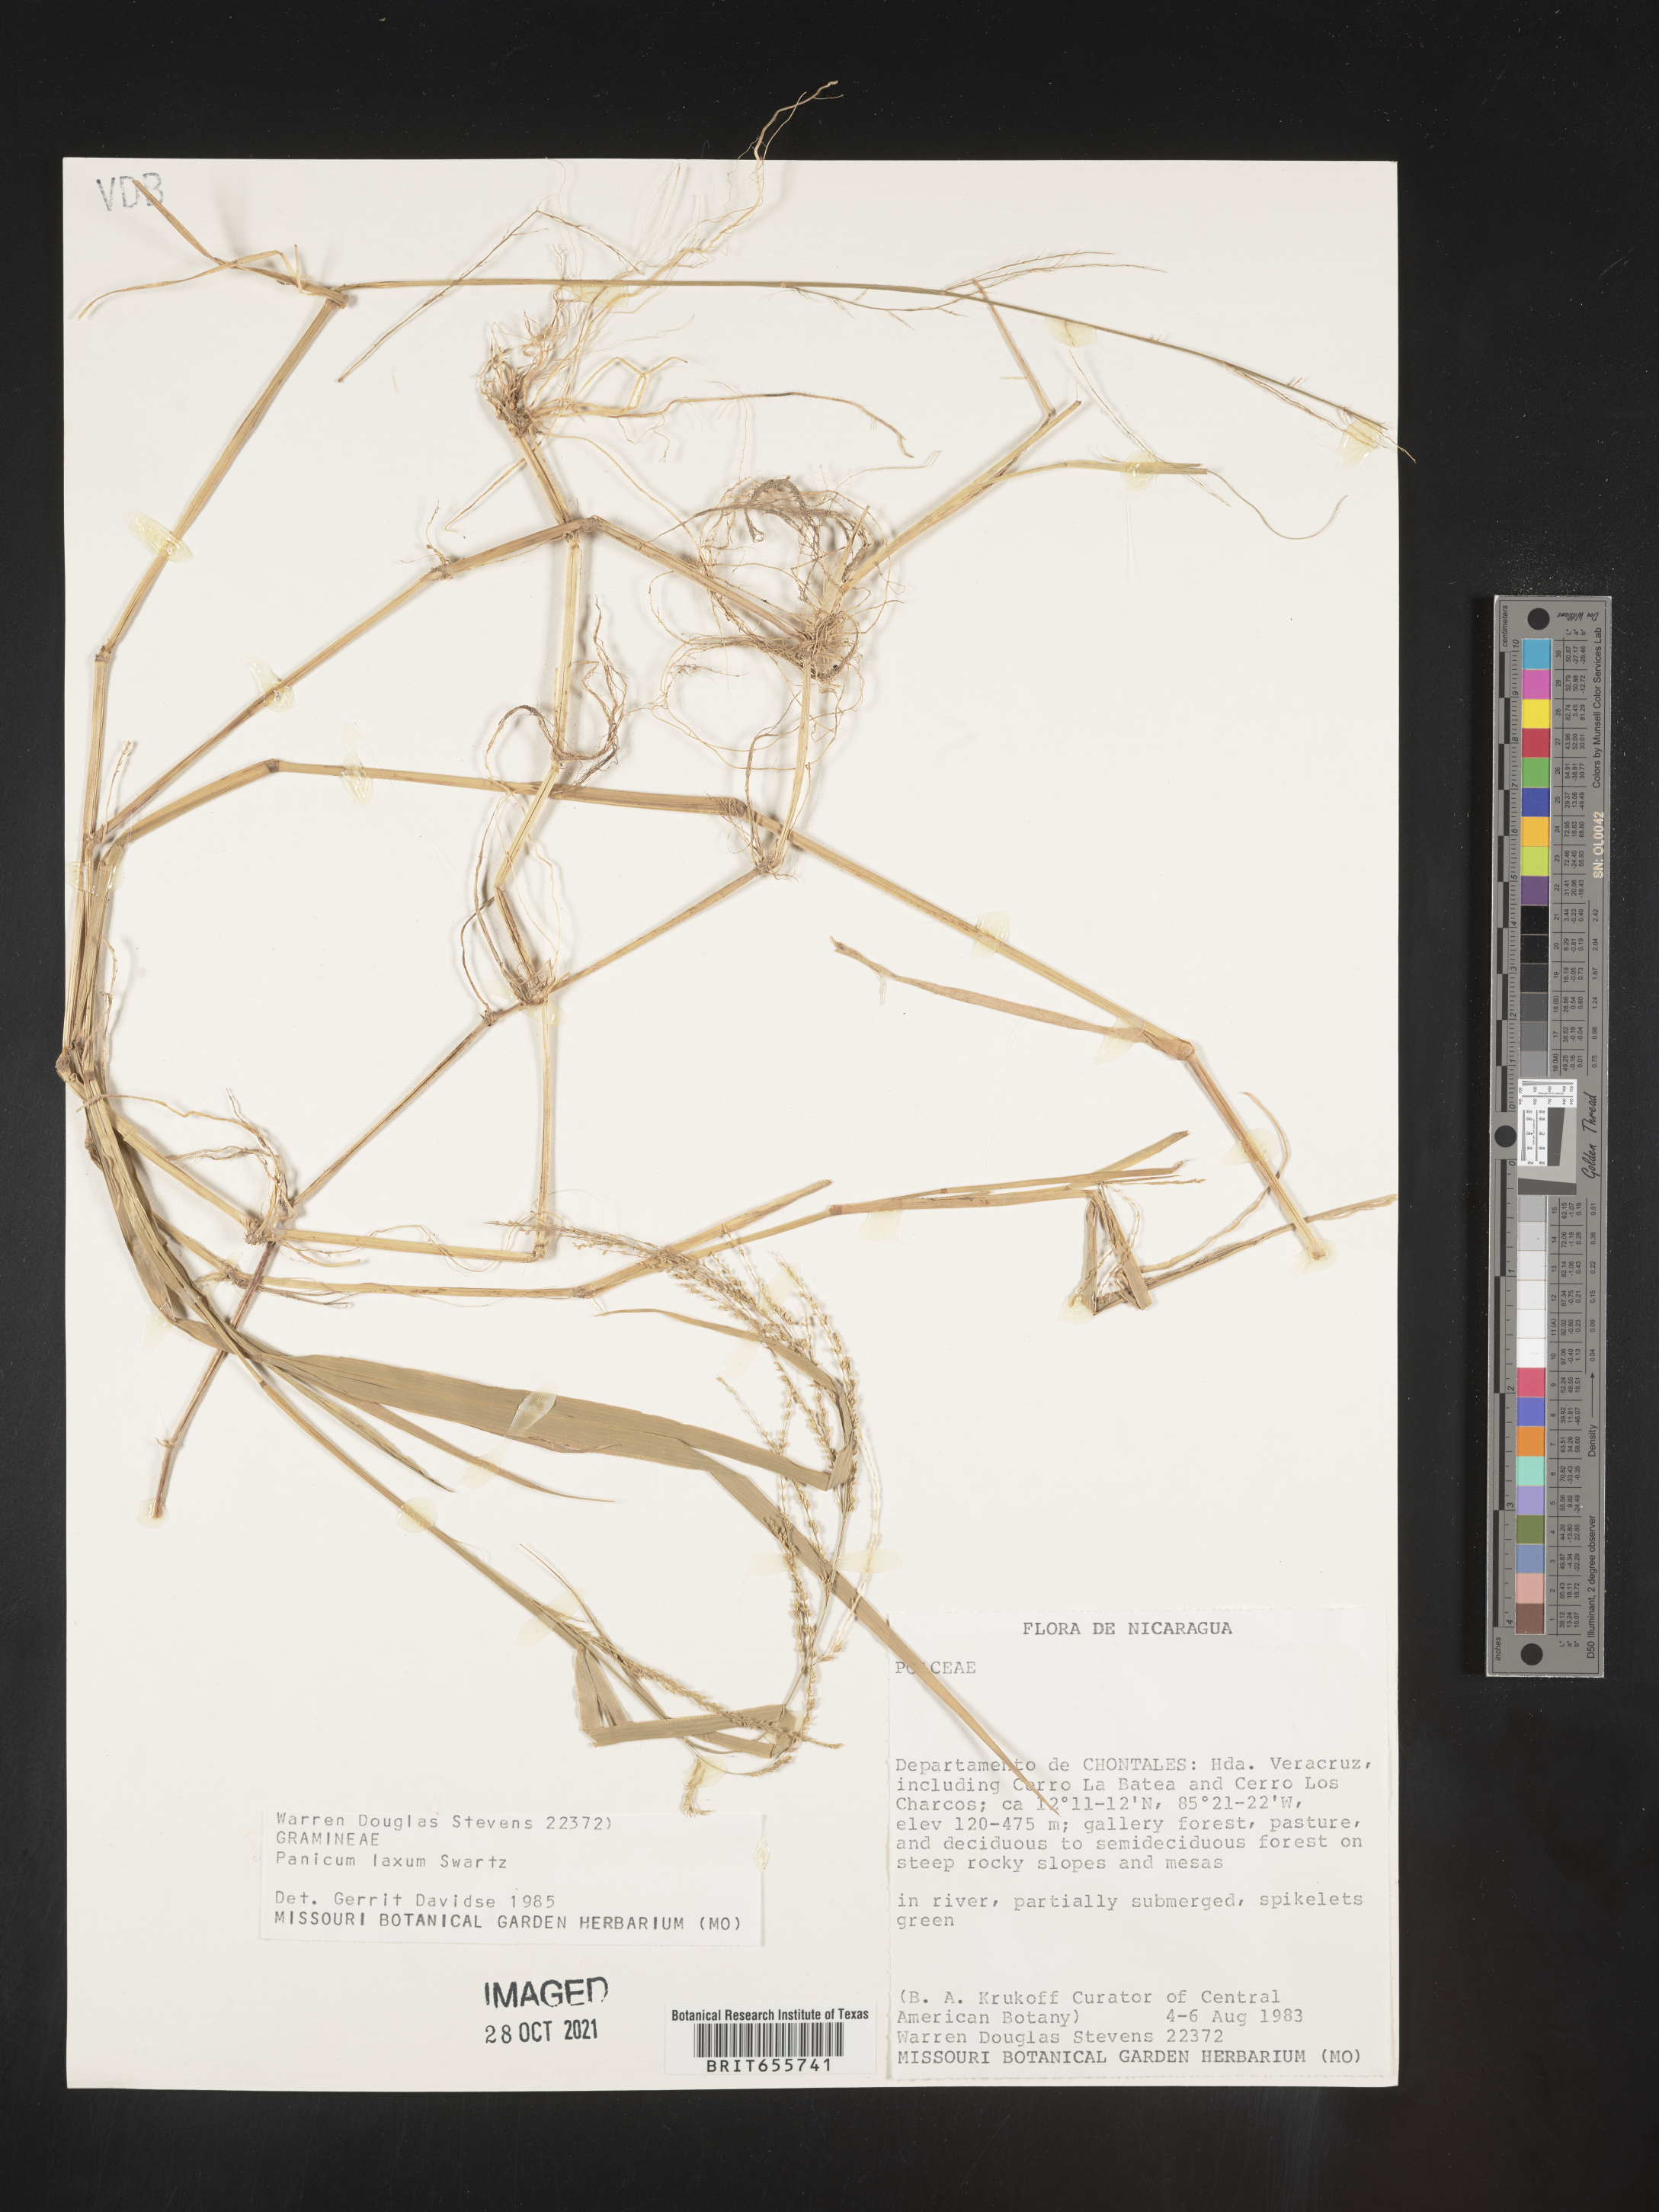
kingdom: Plantae
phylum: Tracheophyta
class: Liliopsida
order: Poales
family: Poaceae
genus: Panicum
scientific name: Panicum
